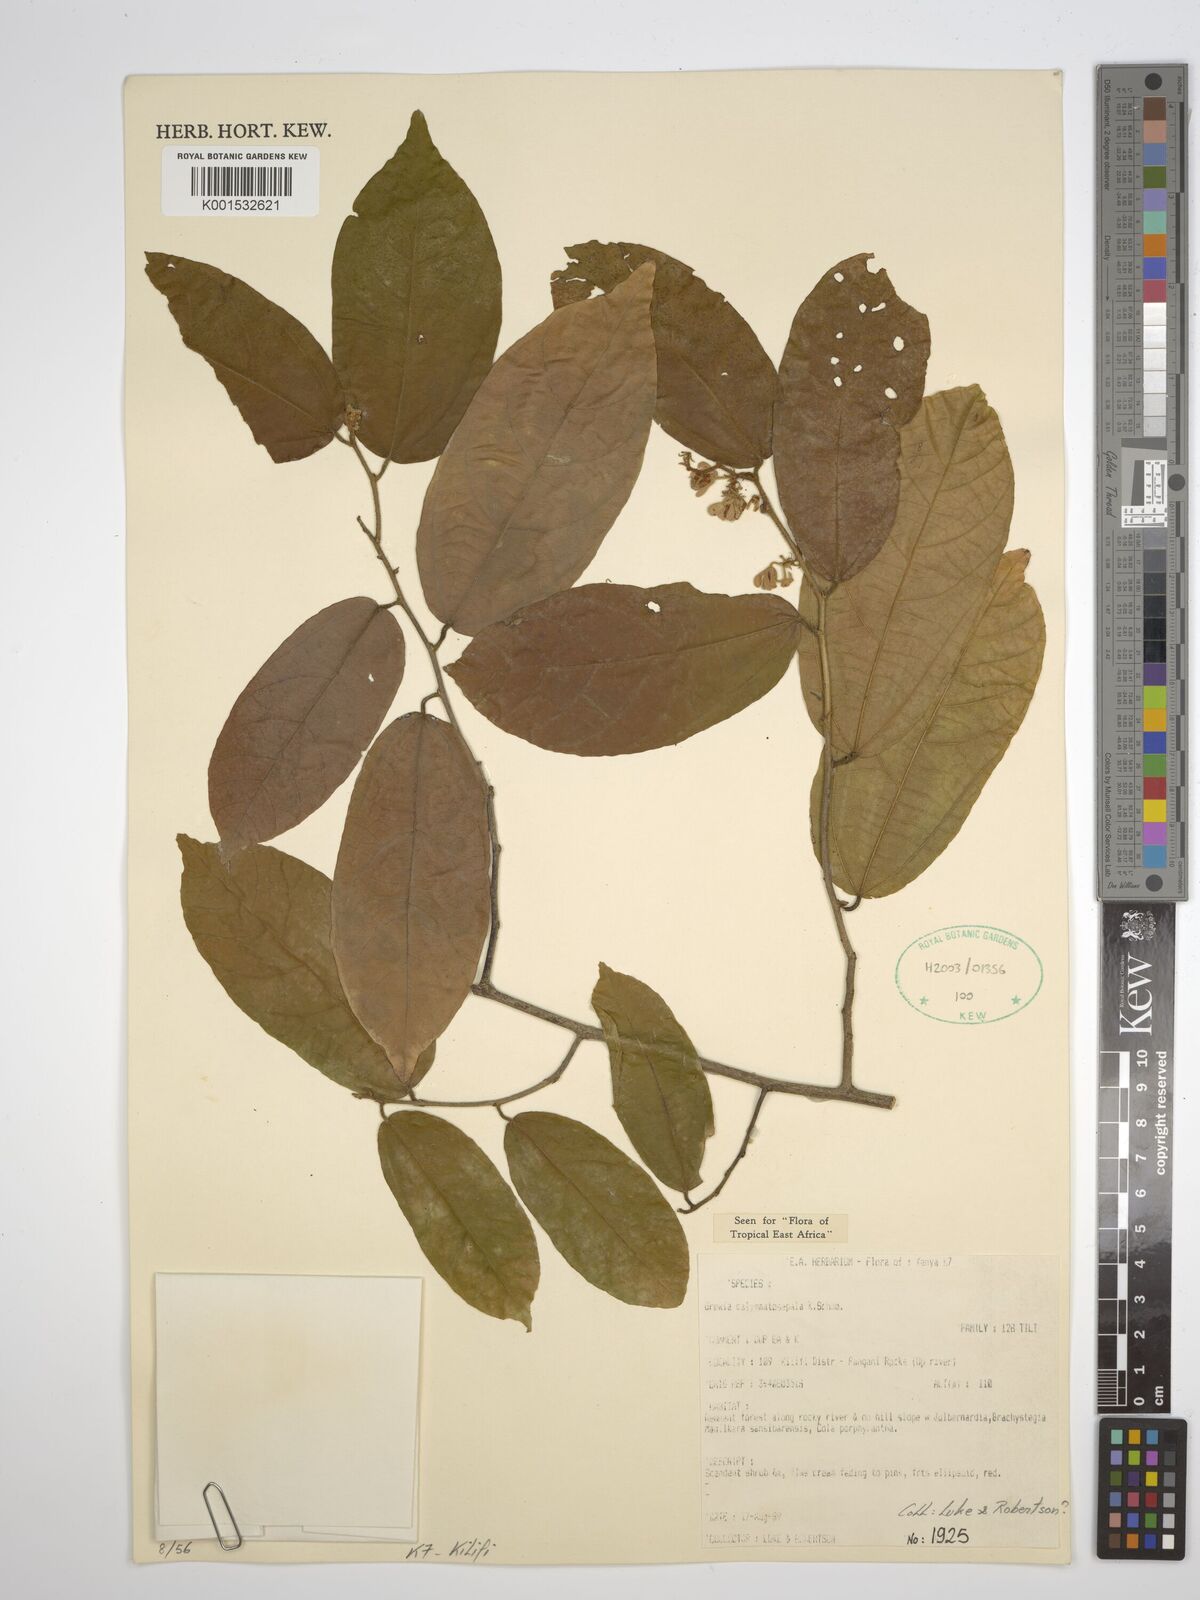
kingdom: Plantae
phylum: Tracheophyta
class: Magnoliopsida
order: Malvales
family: Malvaceae
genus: Microcos
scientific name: Microcos calymmatosepala
